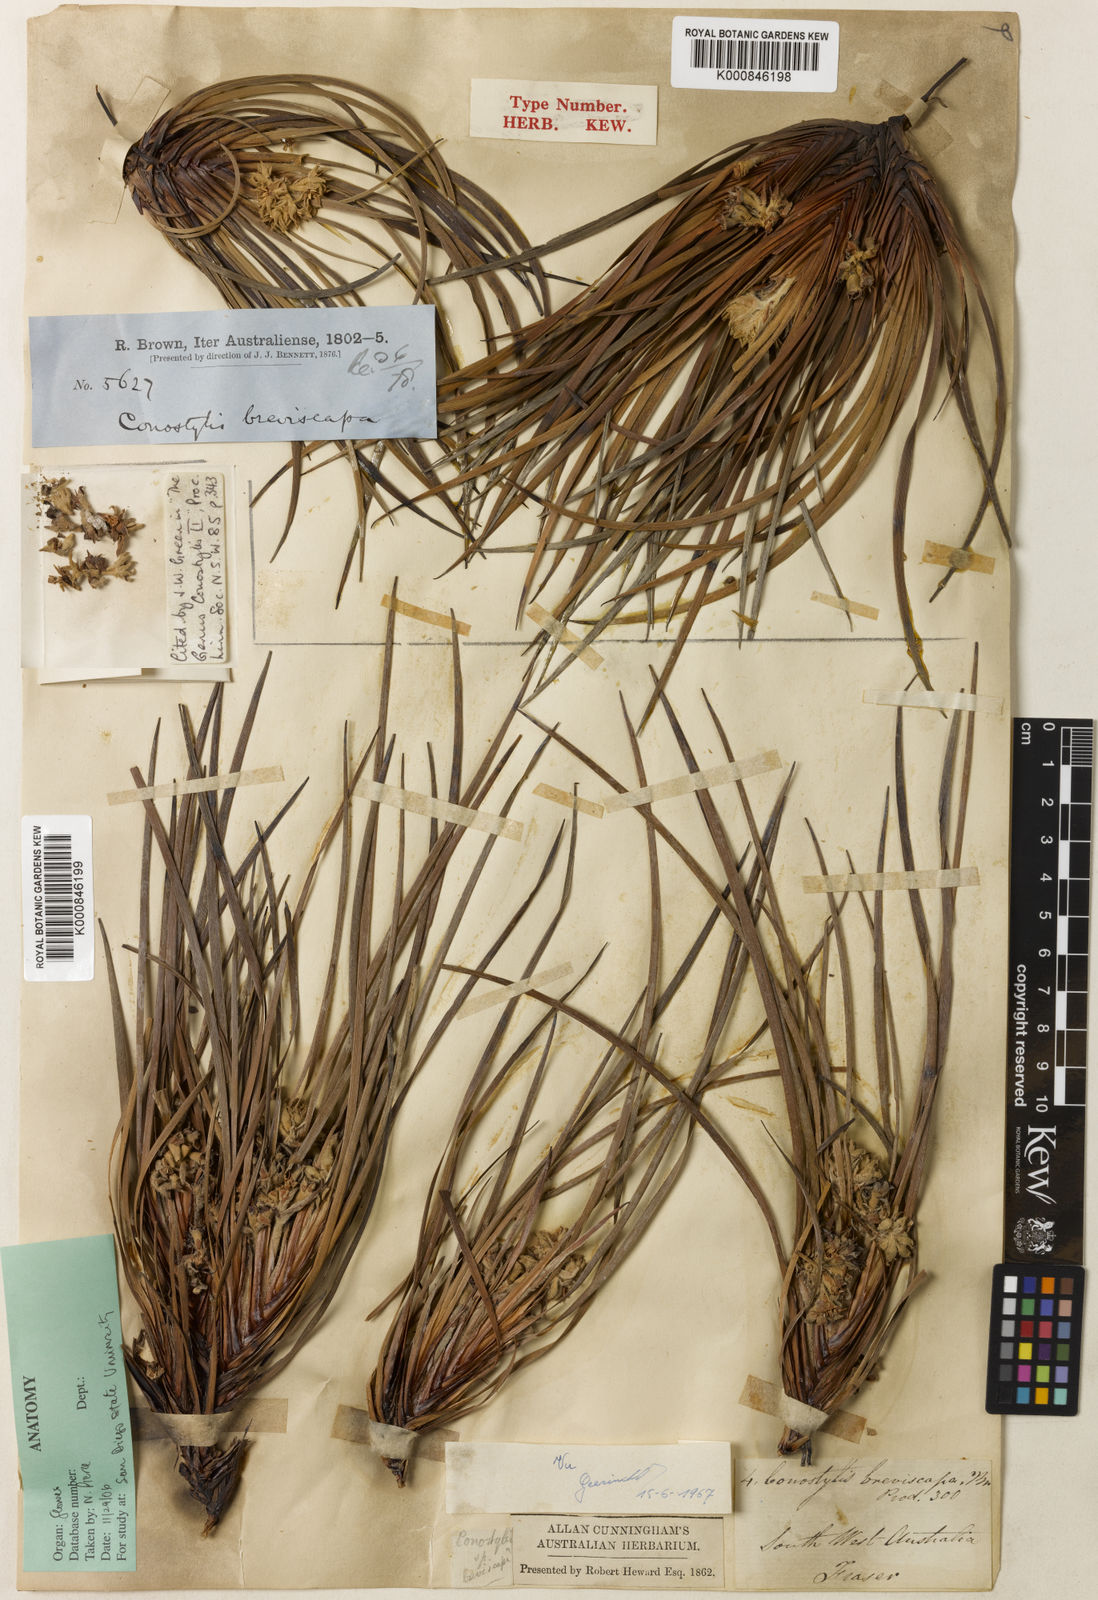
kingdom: Plantae
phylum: Tracheophyta
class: Liliopsida
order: Commelinales
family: Haemodoraceae
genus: Conostylis
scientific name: Conostylis breviscapa
